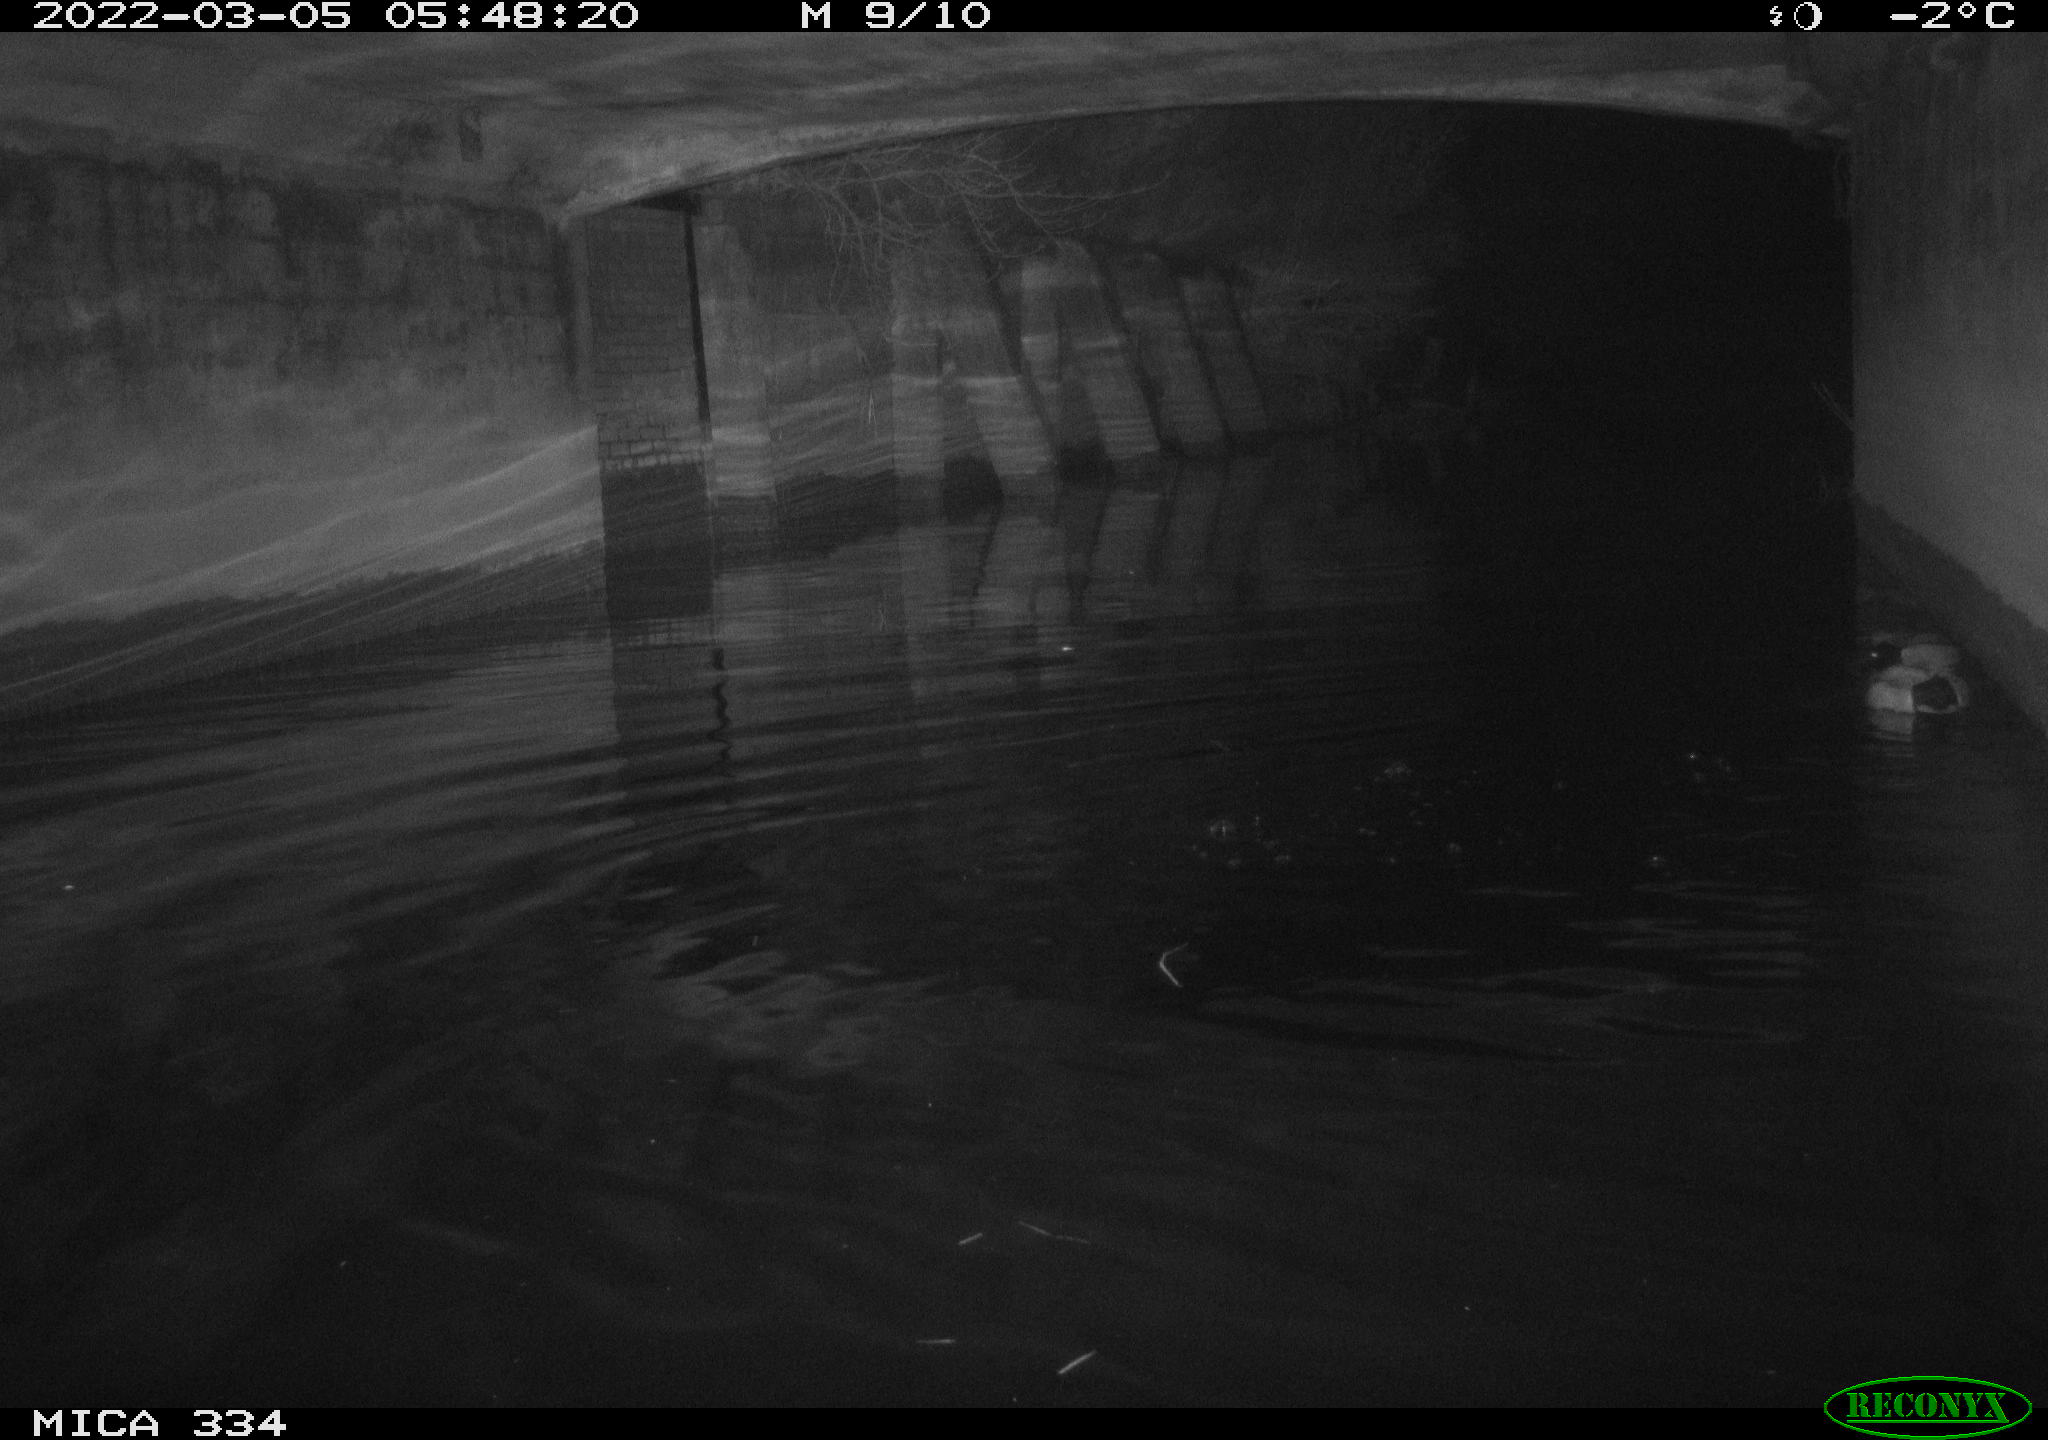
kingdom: Animalia
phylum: Chordata
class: Aves
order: Anseriformes
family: Anatidae
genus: Anas
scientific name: Anas platyrhynchos
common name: Mallard
